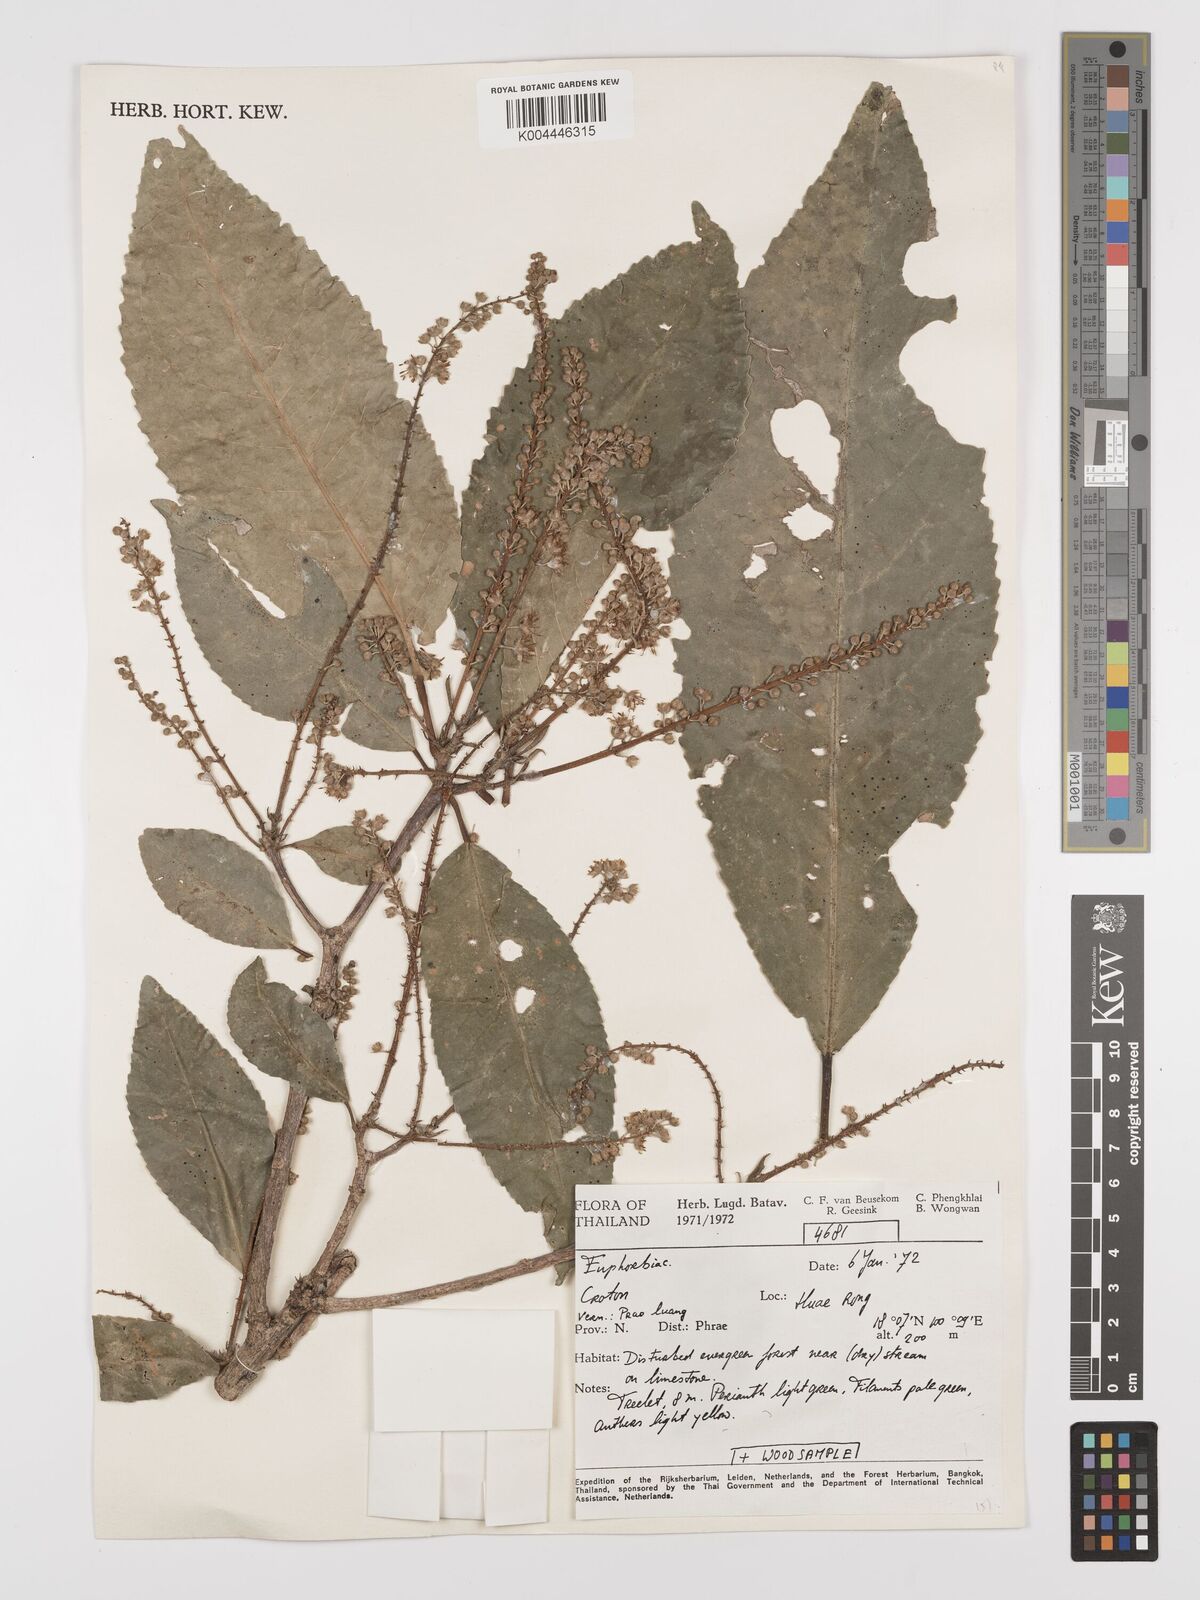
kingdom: Plantae
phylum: Tracheophyta
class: Magnoliopsida
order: Malpighiales
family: Euphorbiaceae
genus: Croton
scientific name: Croton
